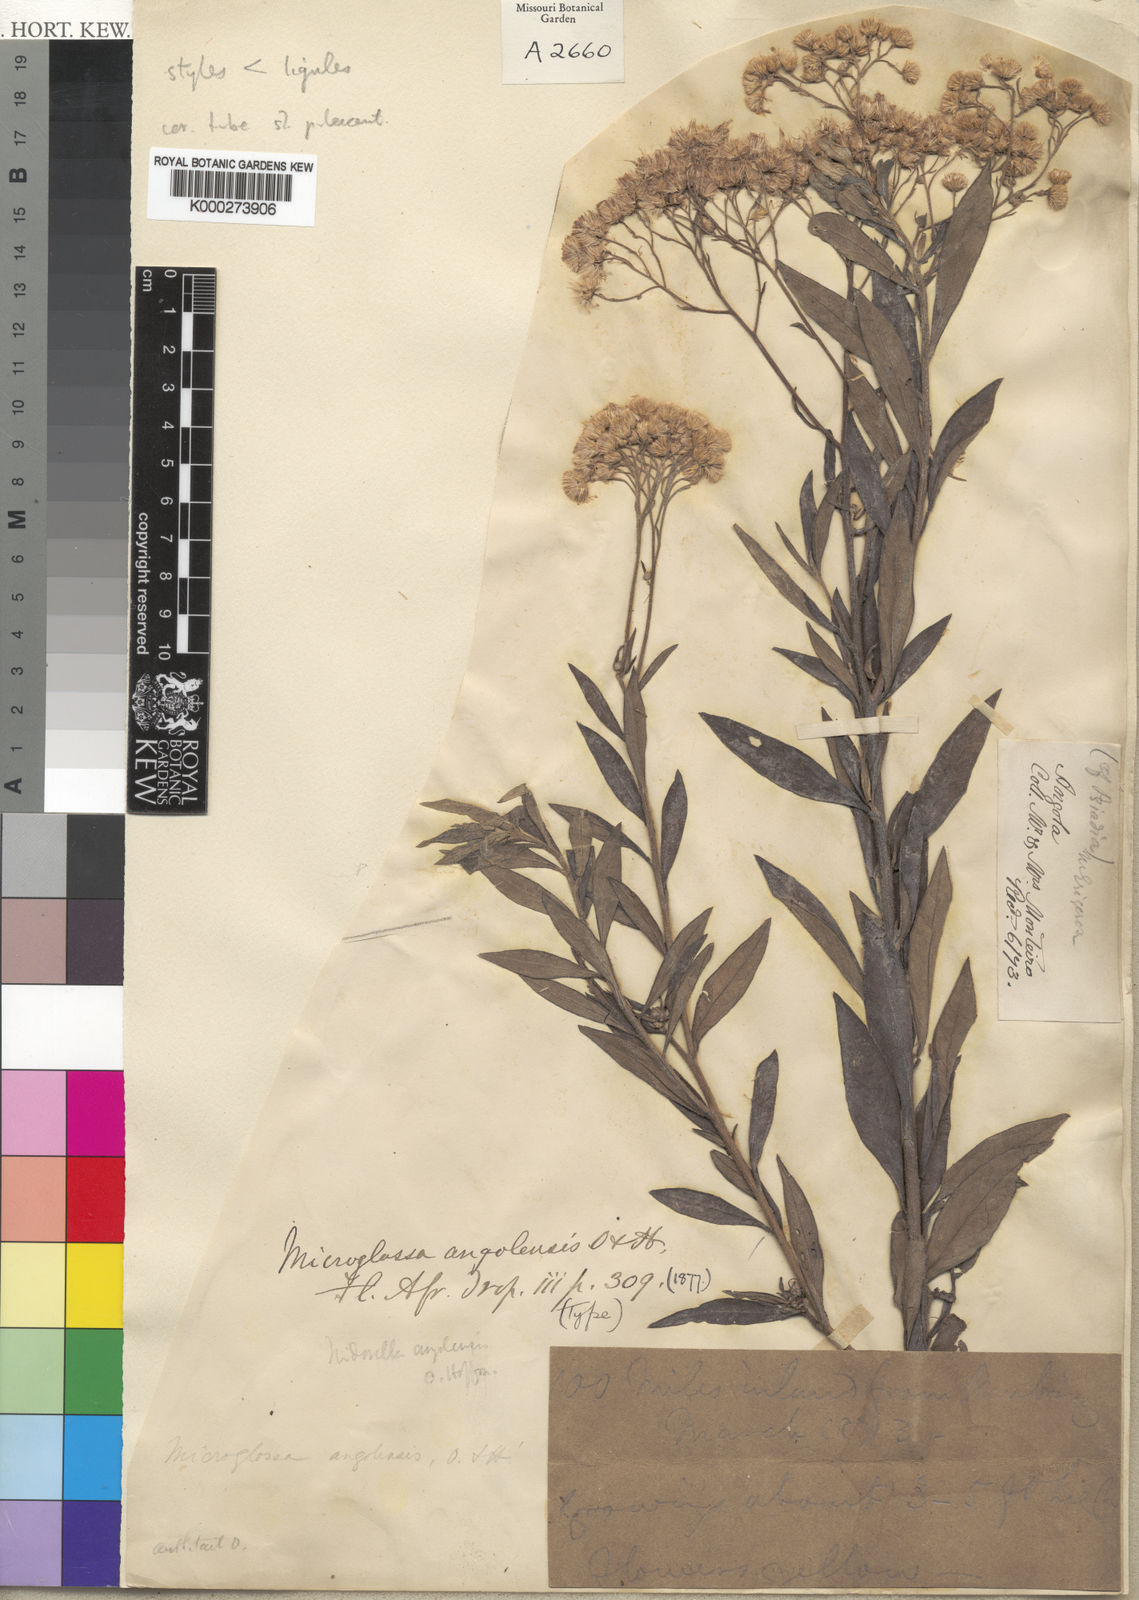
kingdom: Plantae
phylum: Tracheophyta
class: Magnoliopsida
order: Asterales
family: Asteraceae
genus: Microglossa
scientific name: Microglossa pyrrhopappa
